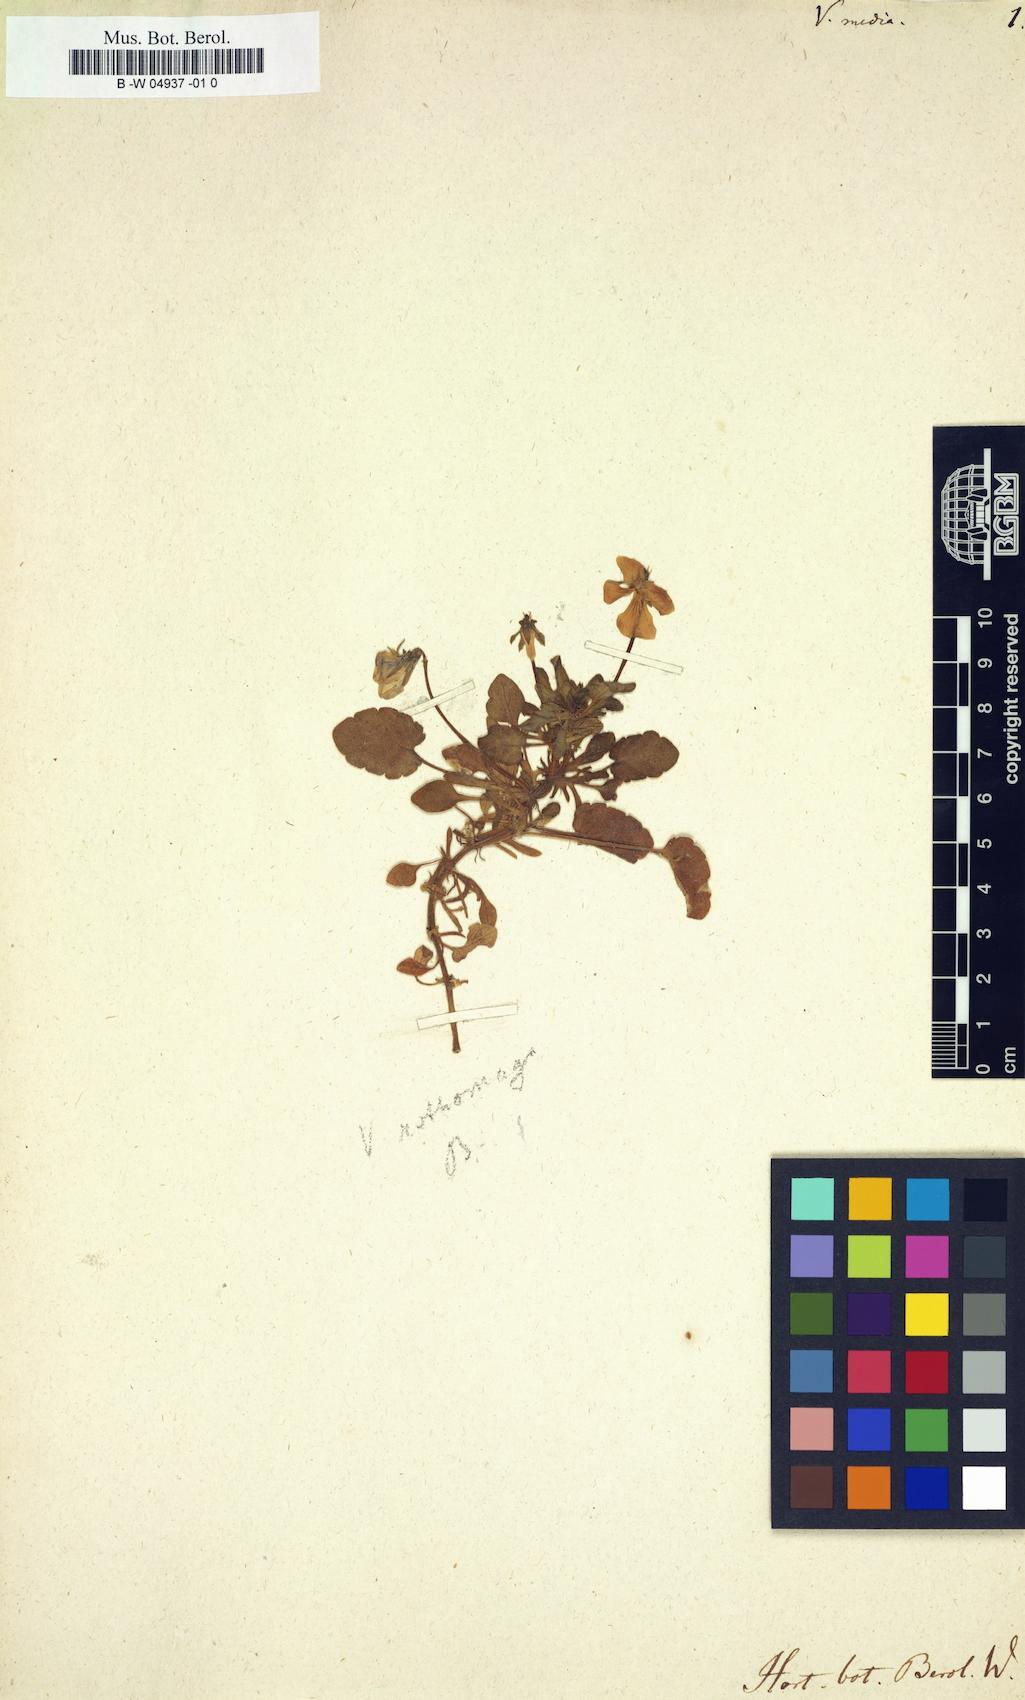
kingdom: Plantae
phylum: Tracheophyta
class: Magnoliopsida
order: Malpighiales
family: Violaceae
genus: Viola
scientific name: Viola tricolor
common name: Pansy
